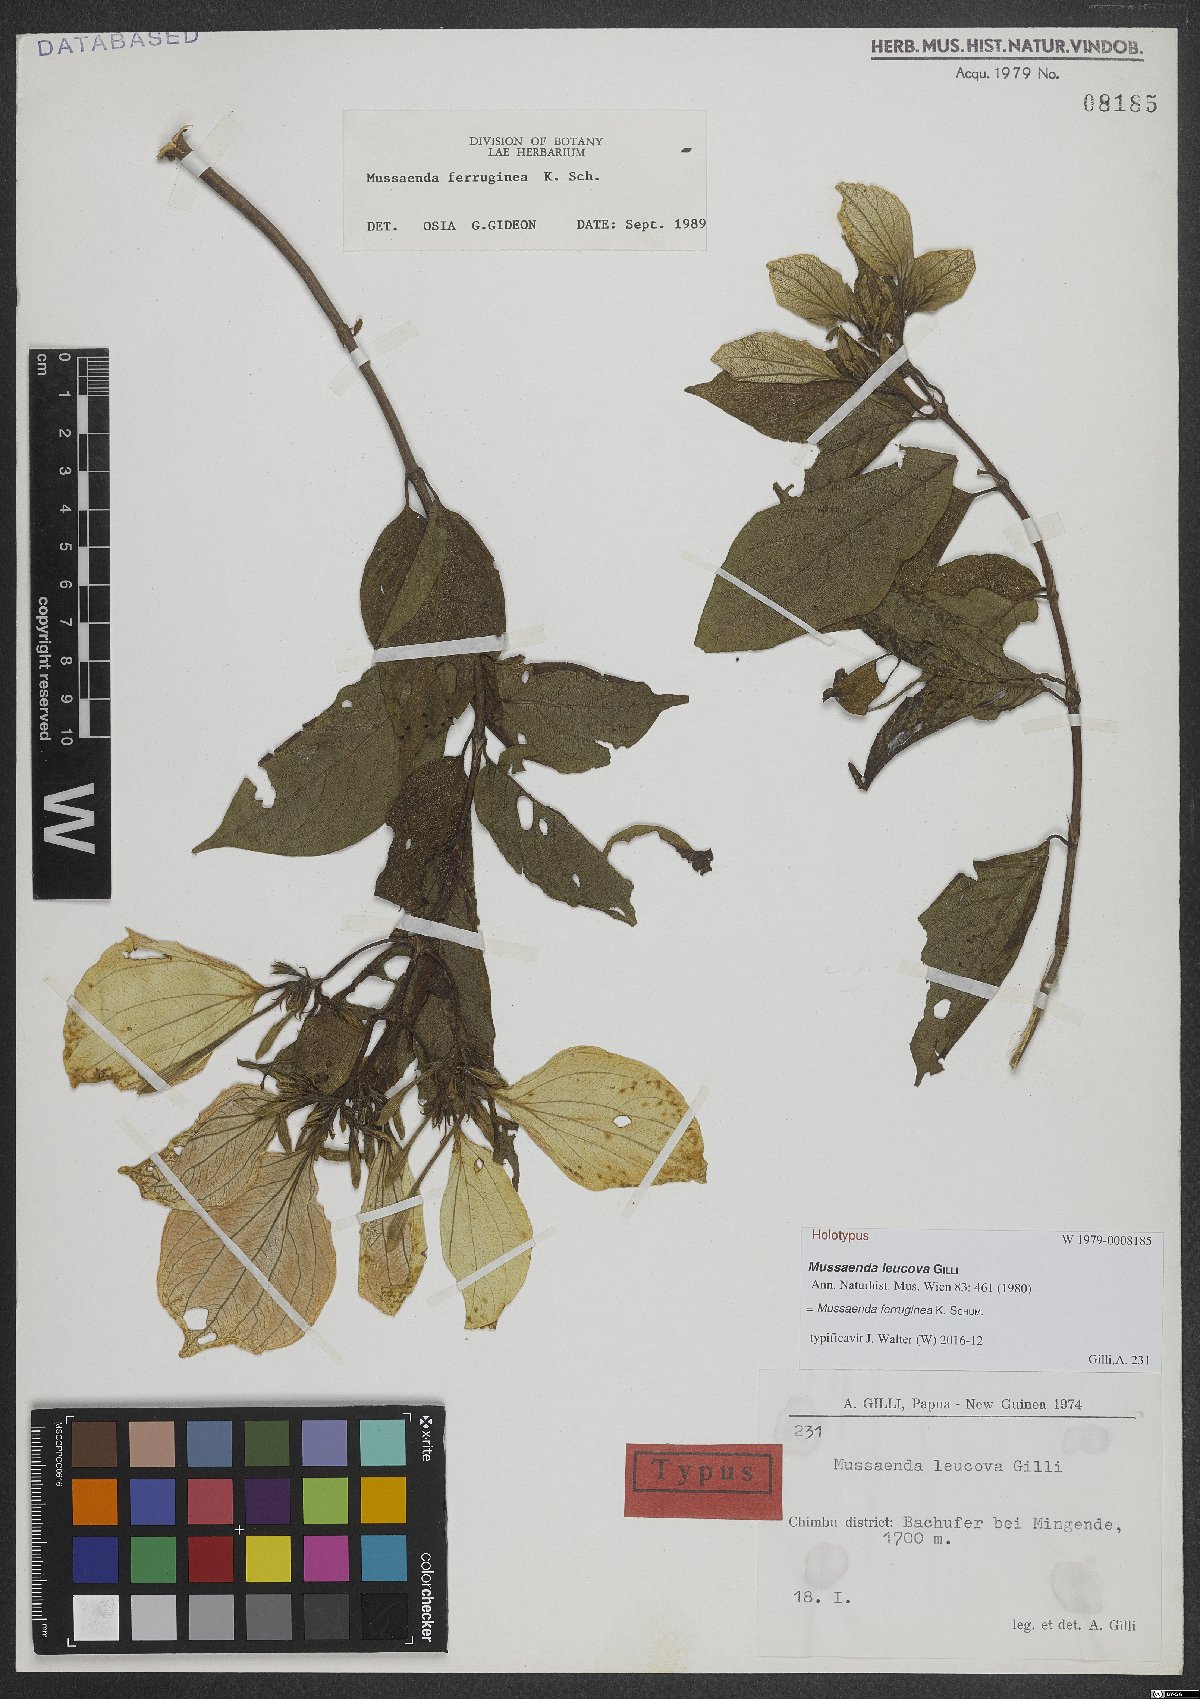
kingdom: Plantae
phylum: Tracheophyta
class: Magnoliopsida
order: Gentianales
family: Rubiaceae
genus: Mussaenda
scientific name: Mussaenda ferruginea
